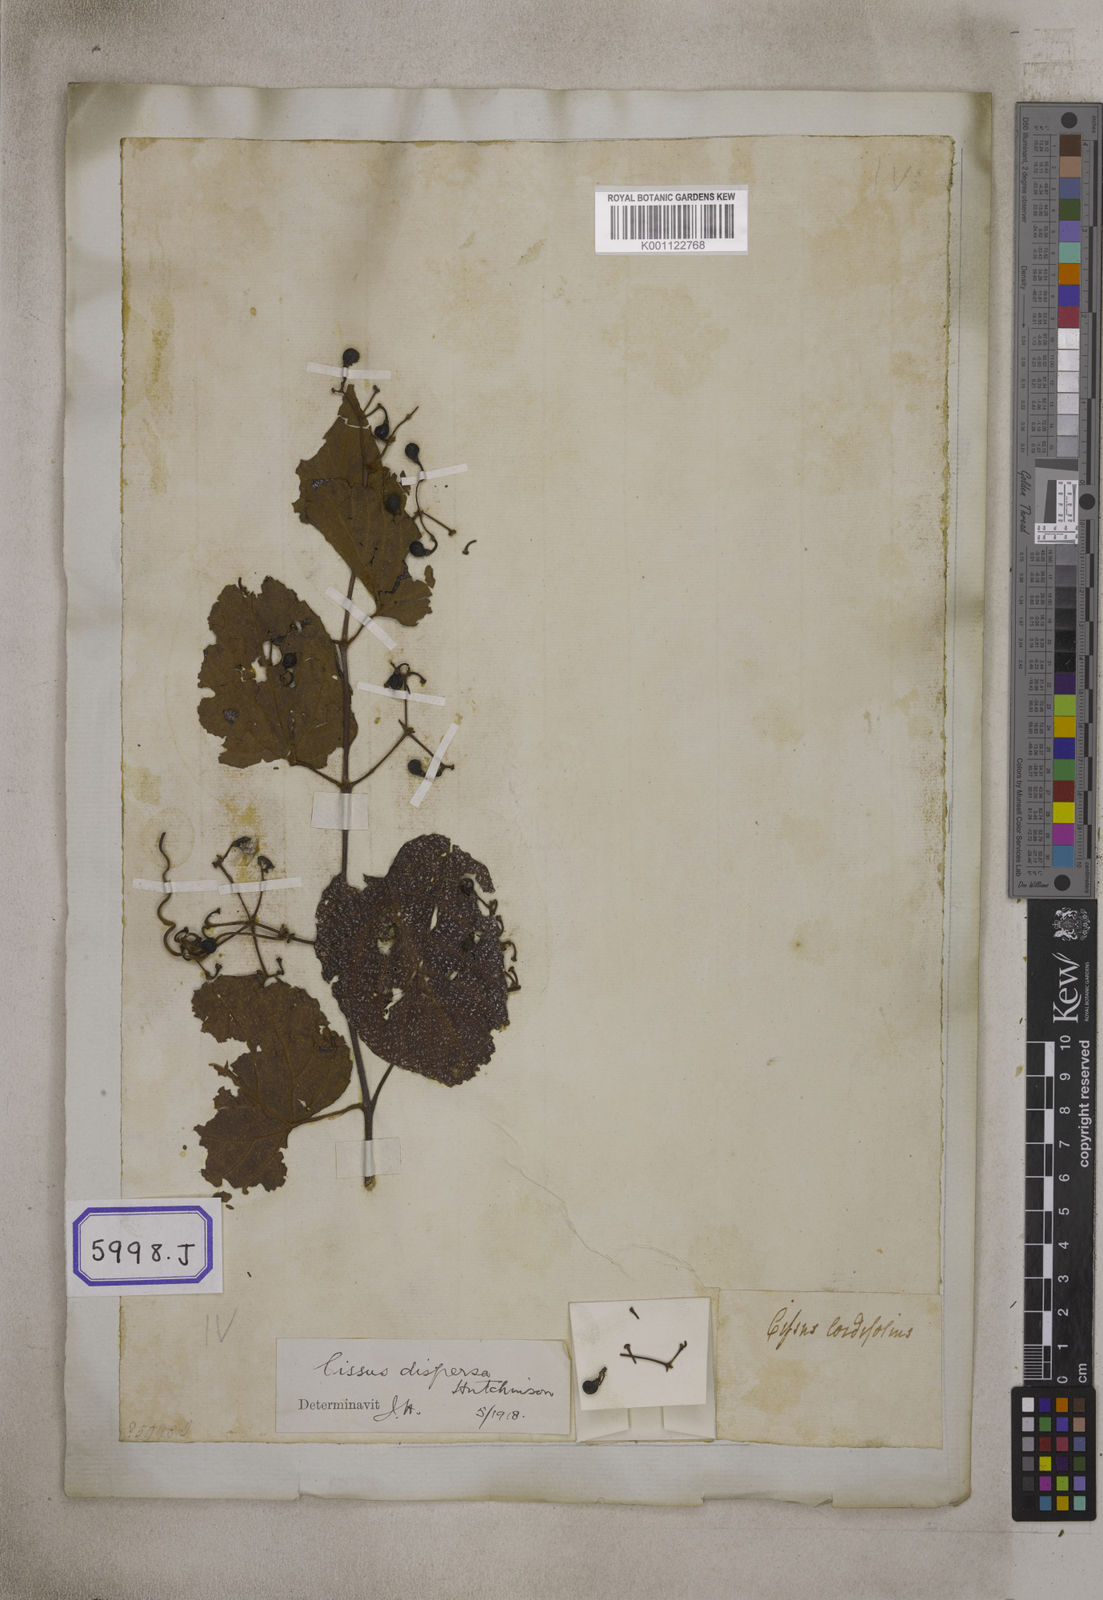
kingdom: Plantae
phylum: Tracheophyta
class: Magnoliopsida
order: Vitales
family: Vitaceae
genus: Cissus
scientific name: Cissus adnata
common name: Heart-leaf-grape
